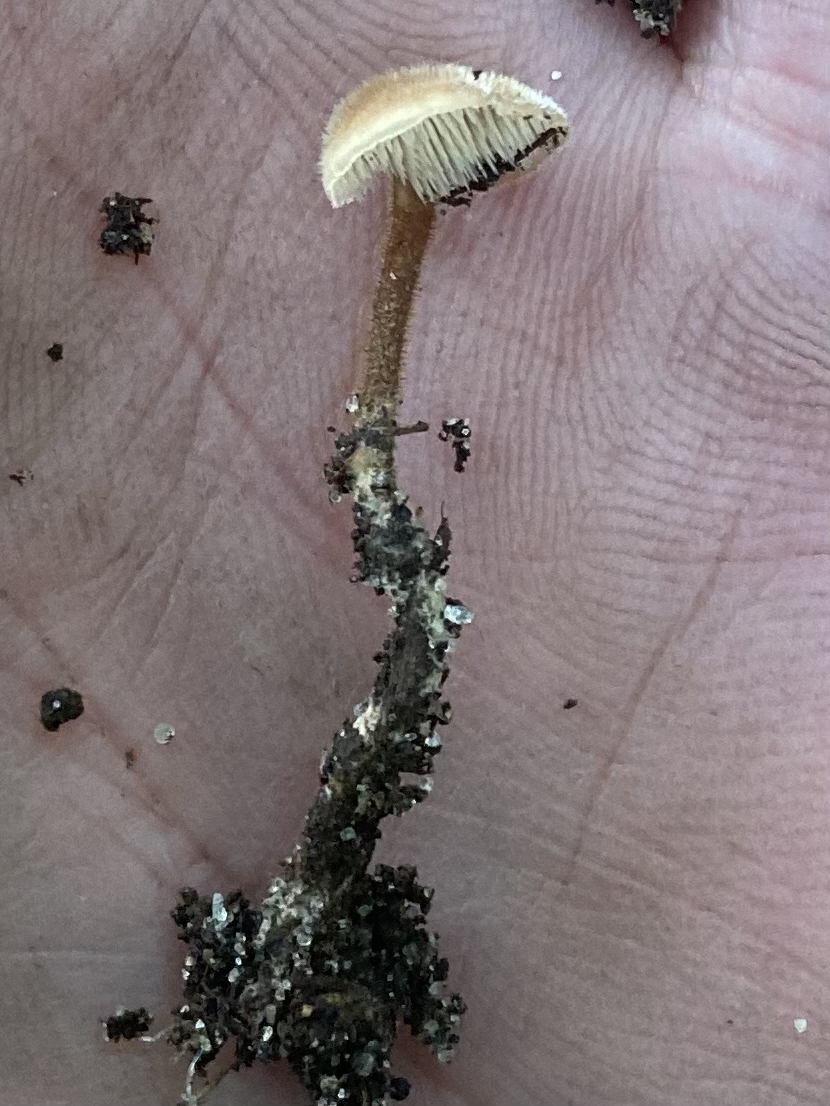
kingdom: Fungi
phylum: Basidiomycota
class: Agaricomycetes
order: Russulales
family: Auriscalpiaceae
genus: Auriscalpium
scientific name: Auriscalpium vulgare
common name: koglepigsvamp
